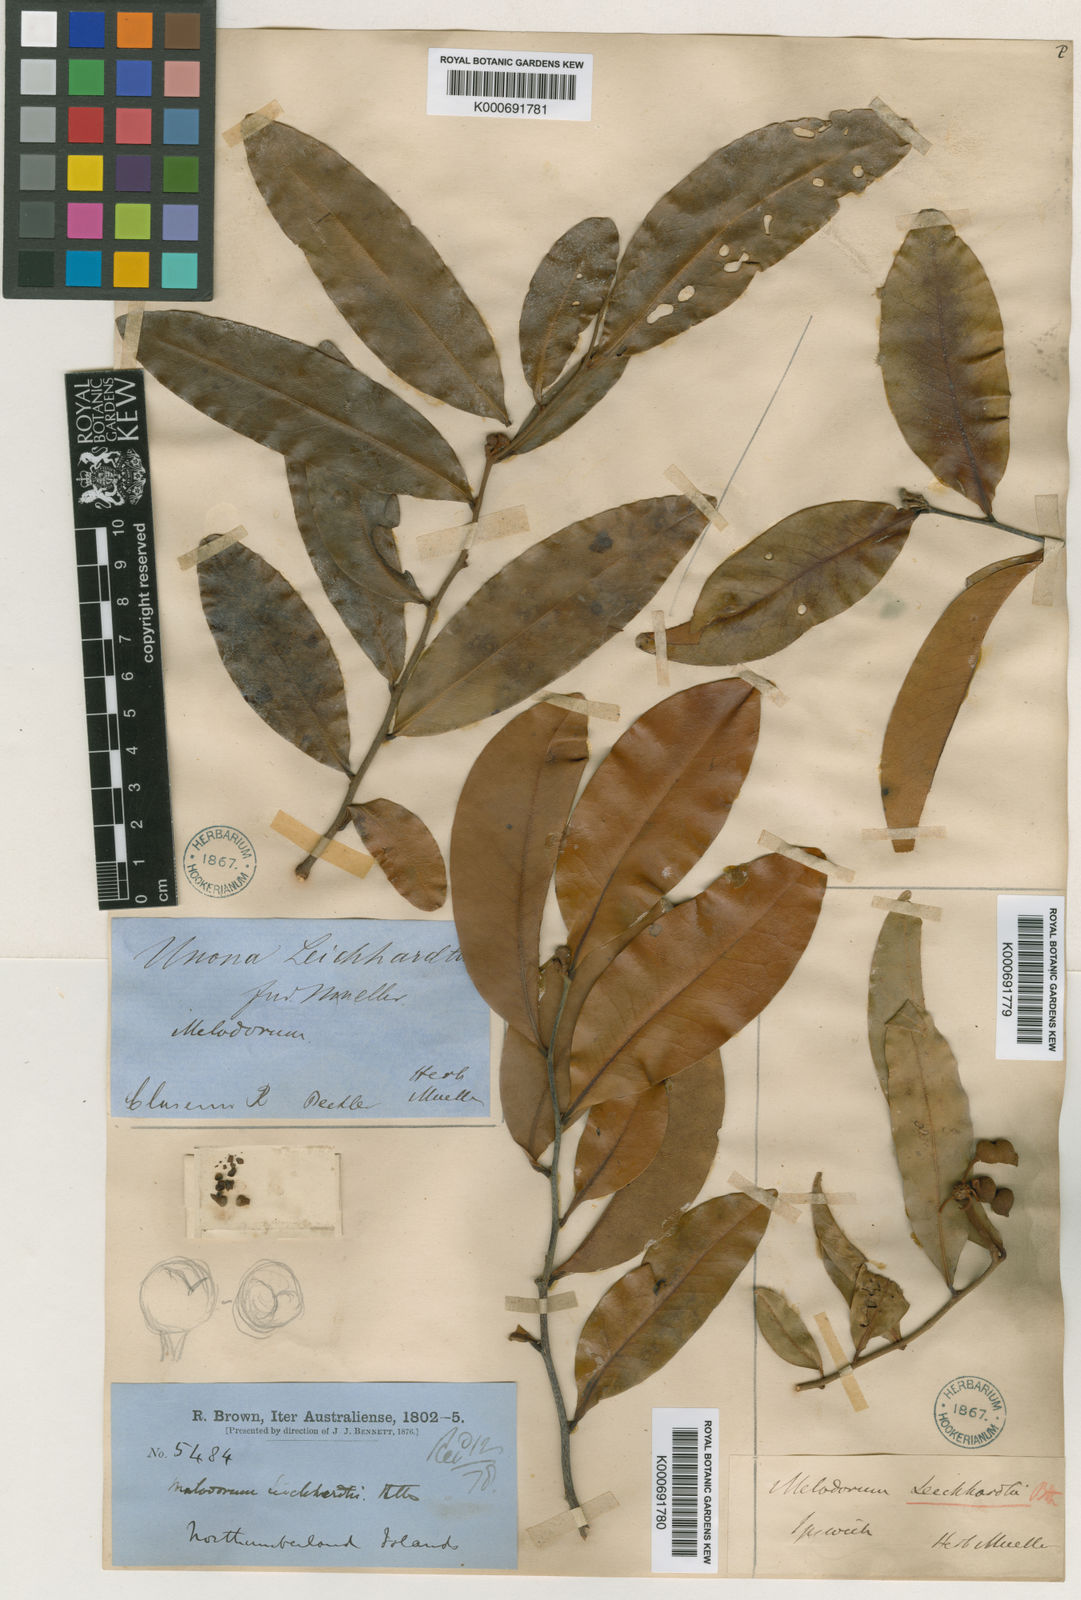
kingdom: Plantae
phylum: Tracheophyta
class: Magnoliopsida
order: Magnoliales
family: Annonaceae
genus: Melodorum
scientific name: Melodorum leichhardtii
